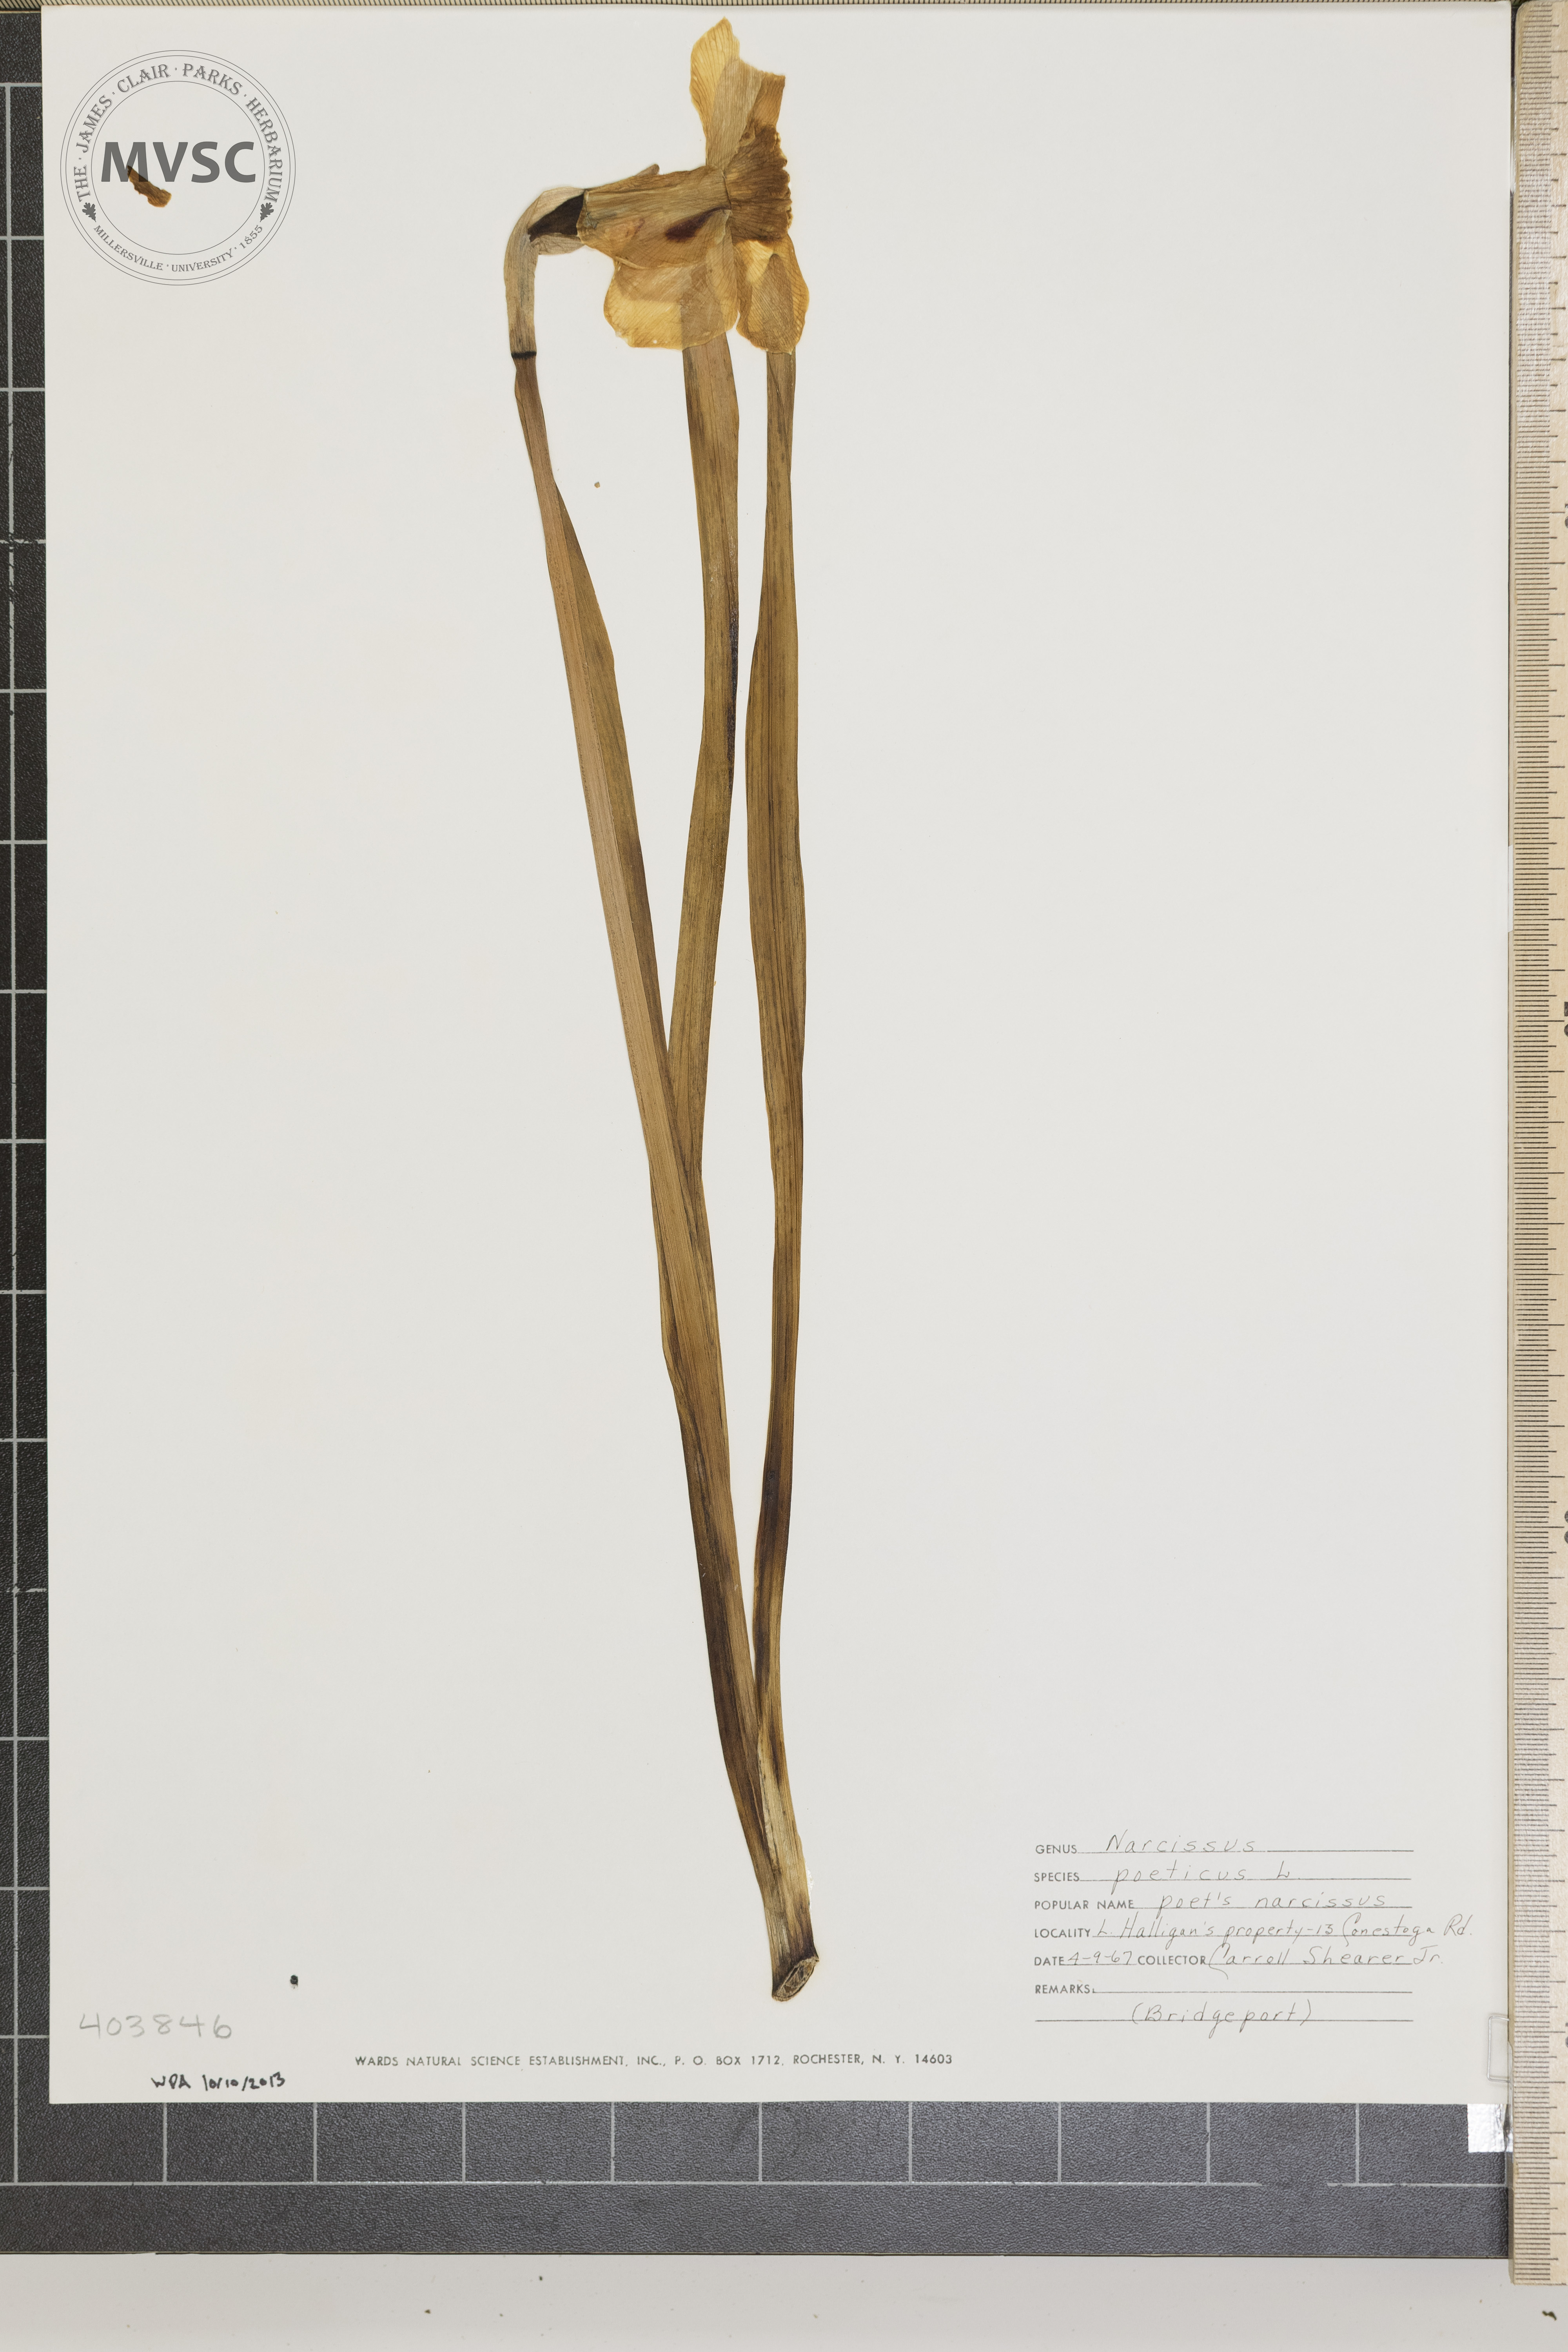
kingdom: Plantae
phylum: Tracheophyta
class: Liliopsida
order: Asparagales
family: Amaryllidaceae
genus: Narcissus
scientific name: Narcissus poeticus
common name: Poet's Narcissus
